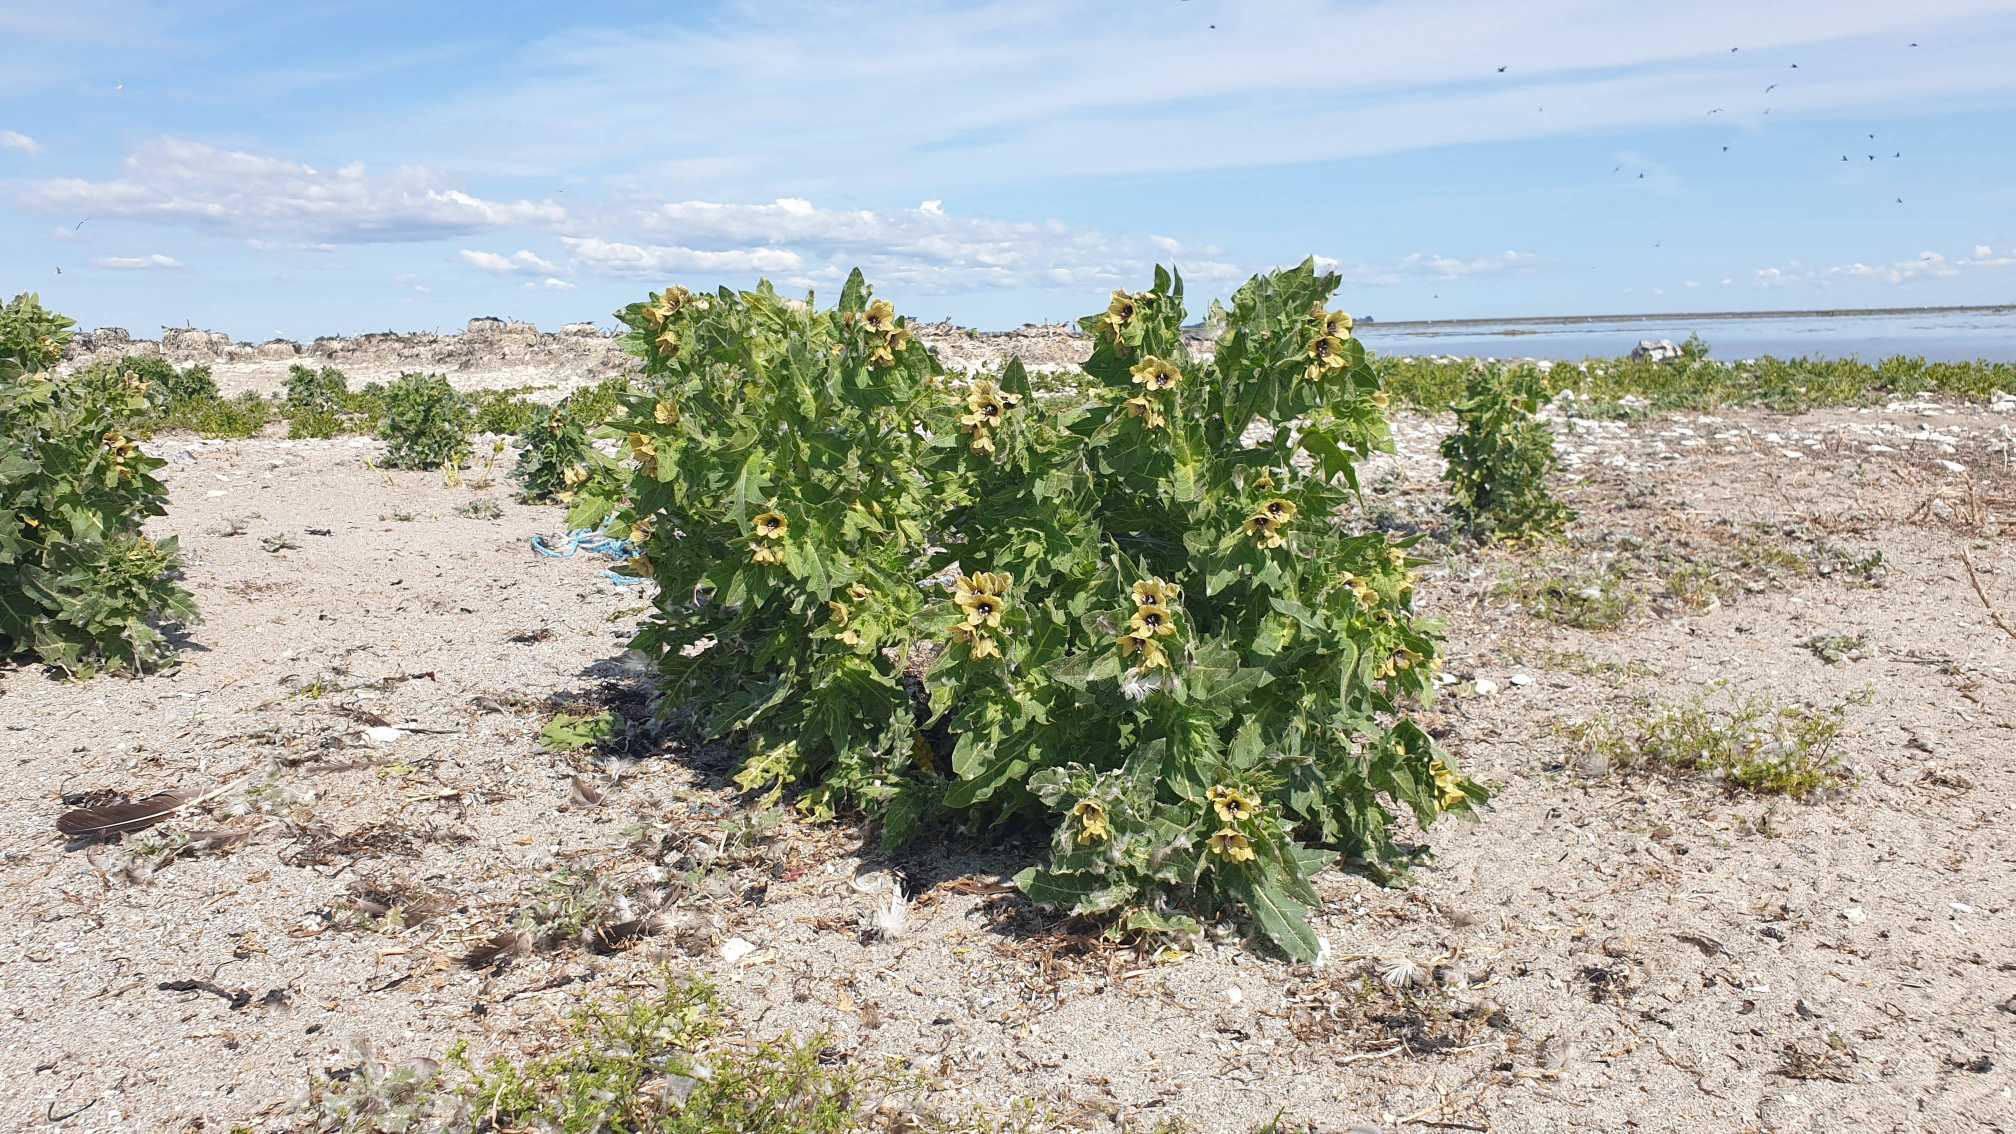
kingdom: Plantae
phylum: Tracheophyta
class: Magnoliopsida
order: Solanales
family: Solanaceae
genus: Hyoscyamus
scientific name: Hyoscyamus niger
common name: Bulmeurt
